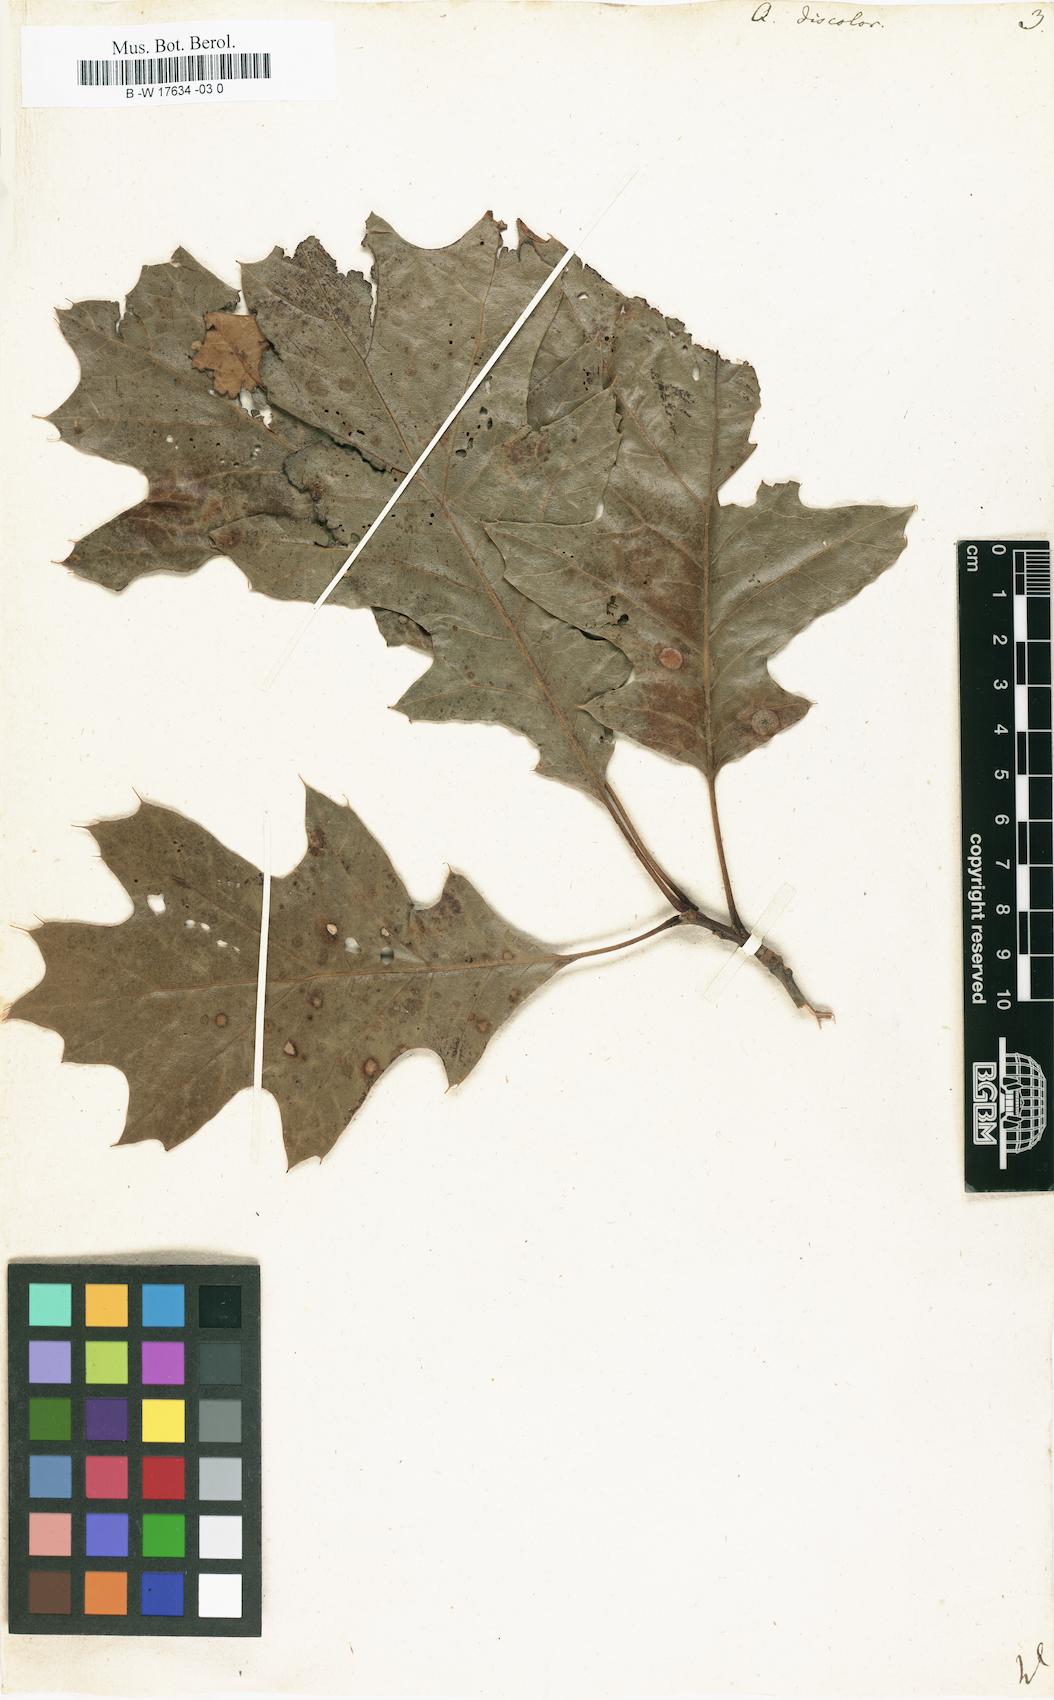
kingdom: Plantae
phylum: Tracheophyta
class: Magnoliopsida
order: Fagales
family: Fagaceae
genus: Quercus
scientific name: Quercus velutina
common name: Black oak
